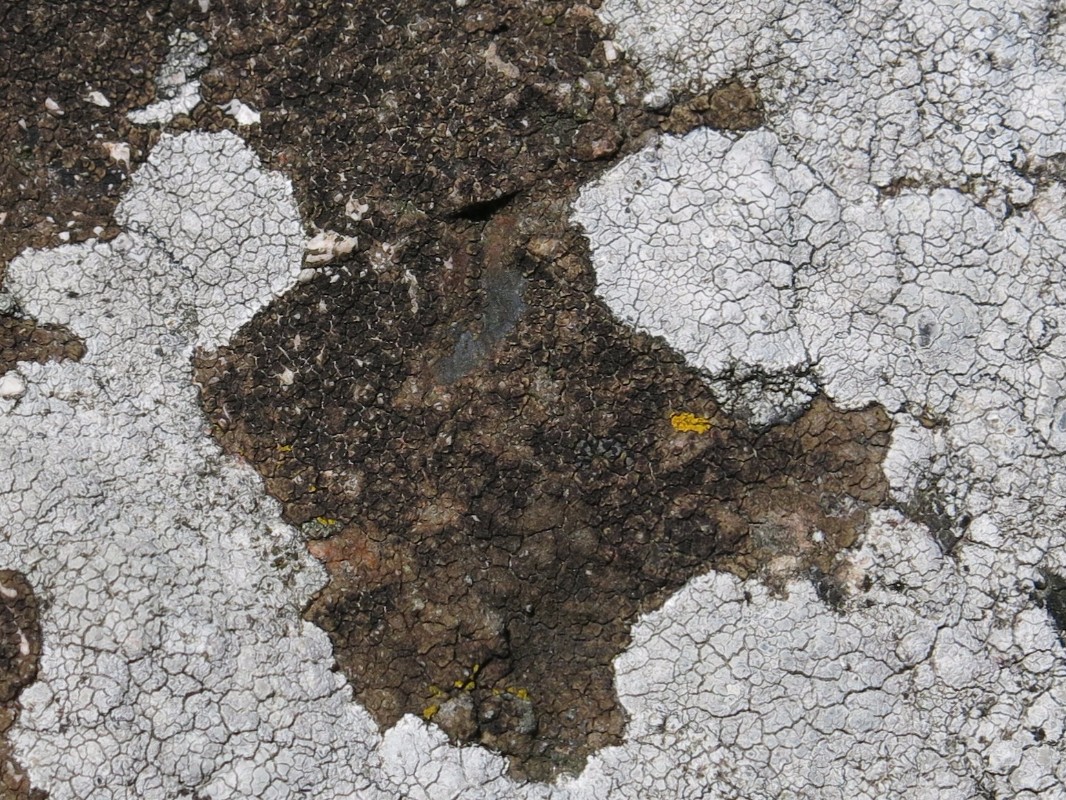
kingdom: Fungi
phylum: Ascomycota
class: Lecanoromycetes
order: Acarosporales
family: Acarosporaceae
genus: Acarospora
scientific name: Acarospora fuscata
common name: brun småsporelav
